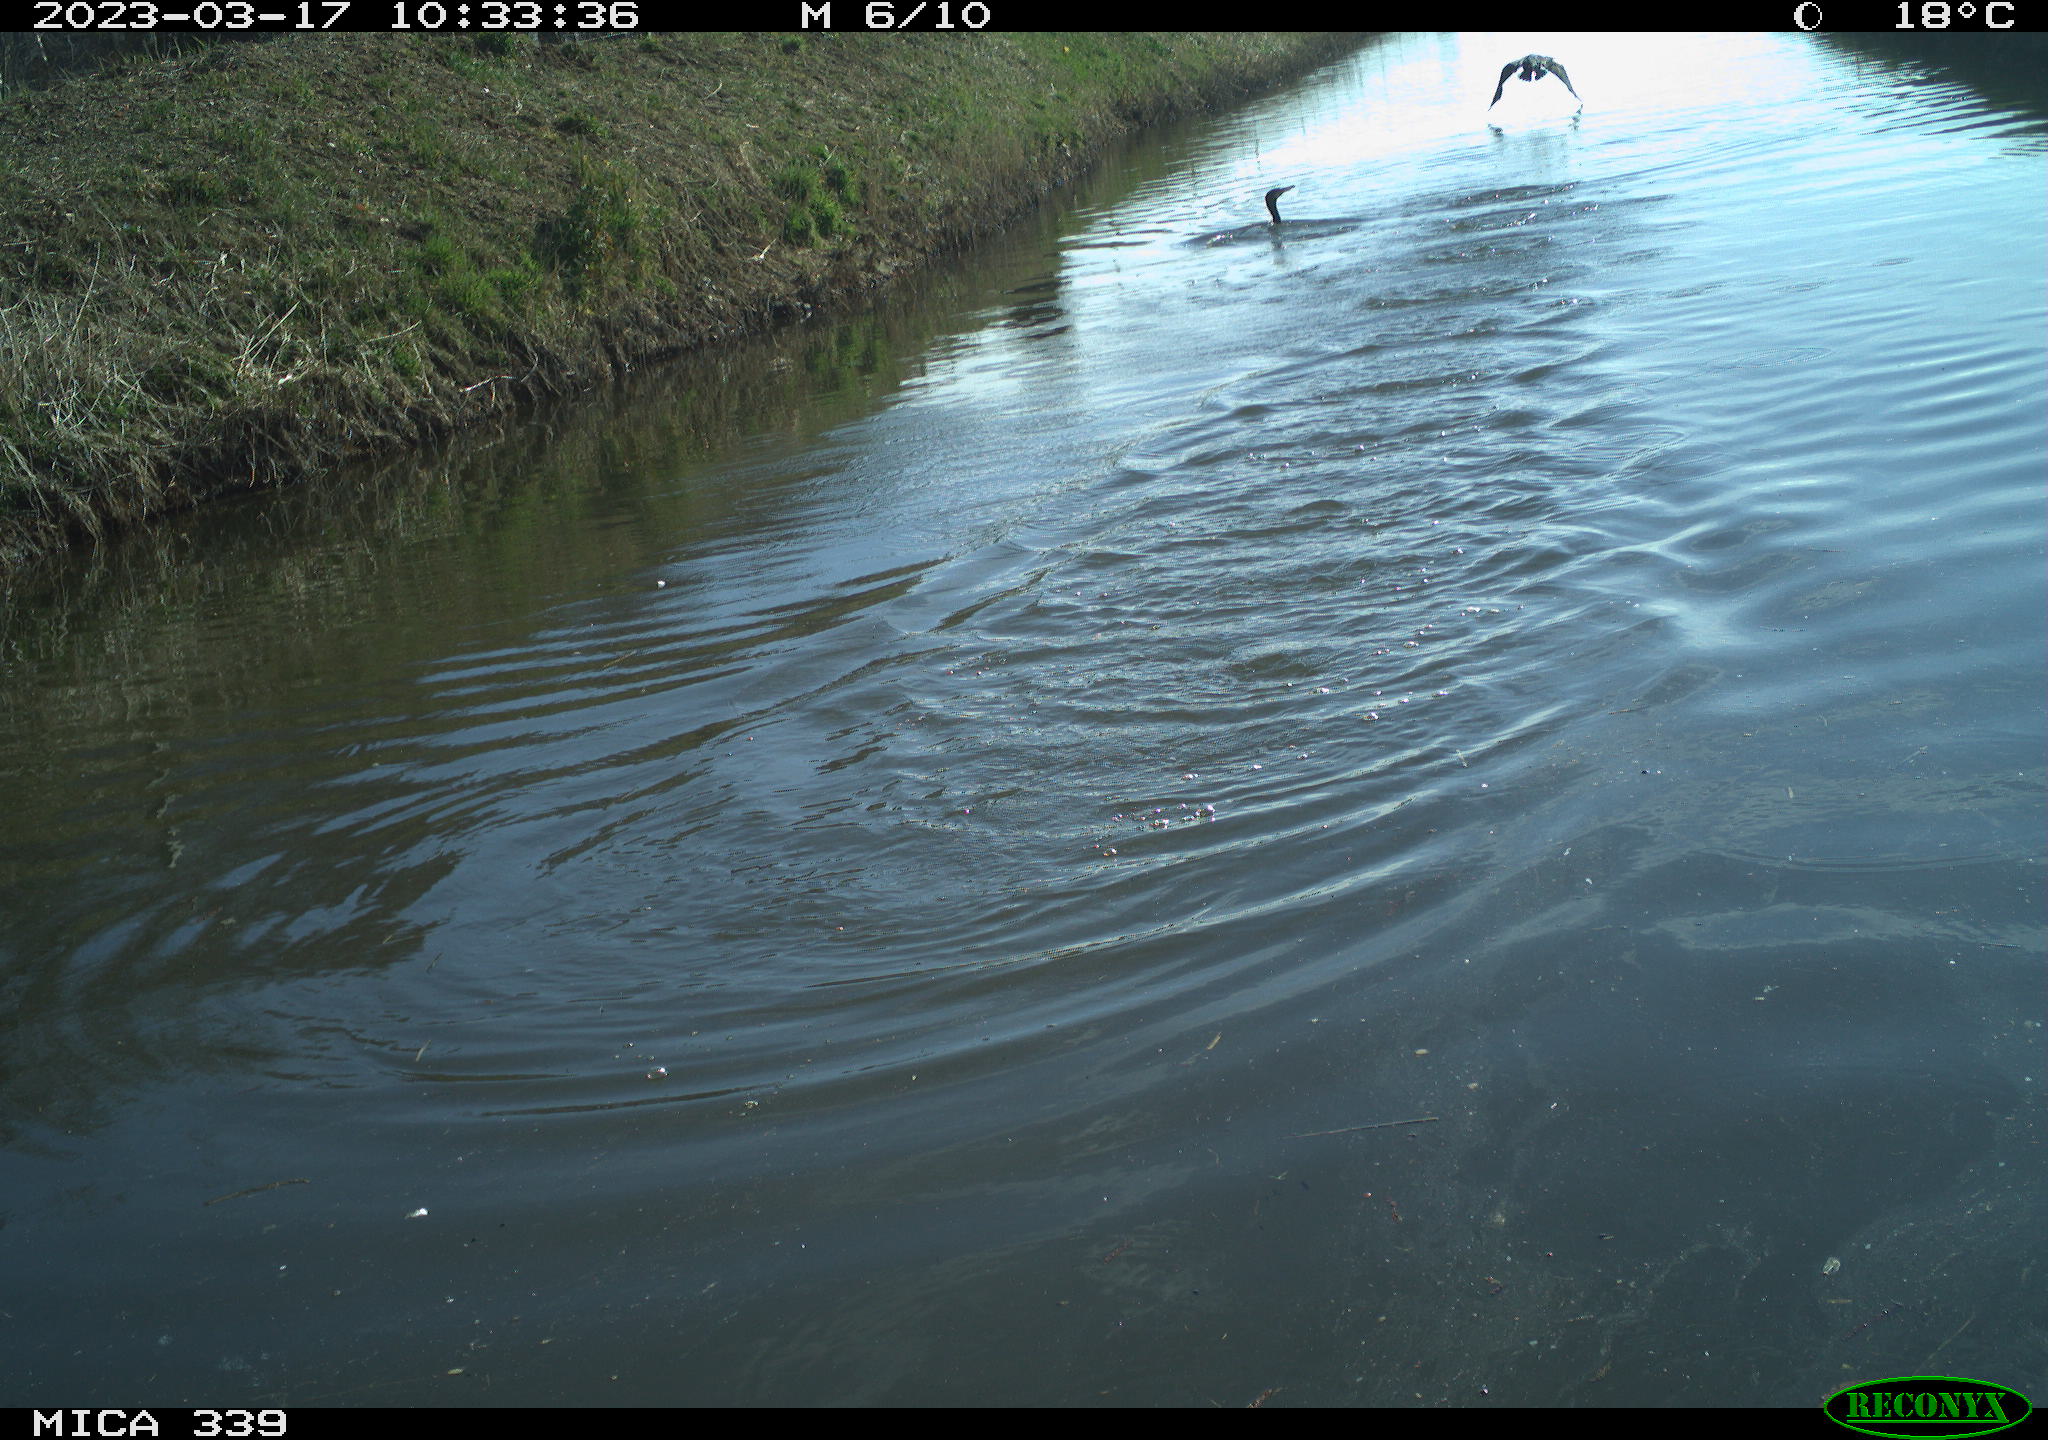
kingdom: Animalia
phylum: Chordata
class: Aves
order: Pelecaniformes
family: Ardeidae
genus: Ardea
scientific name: Ardea
